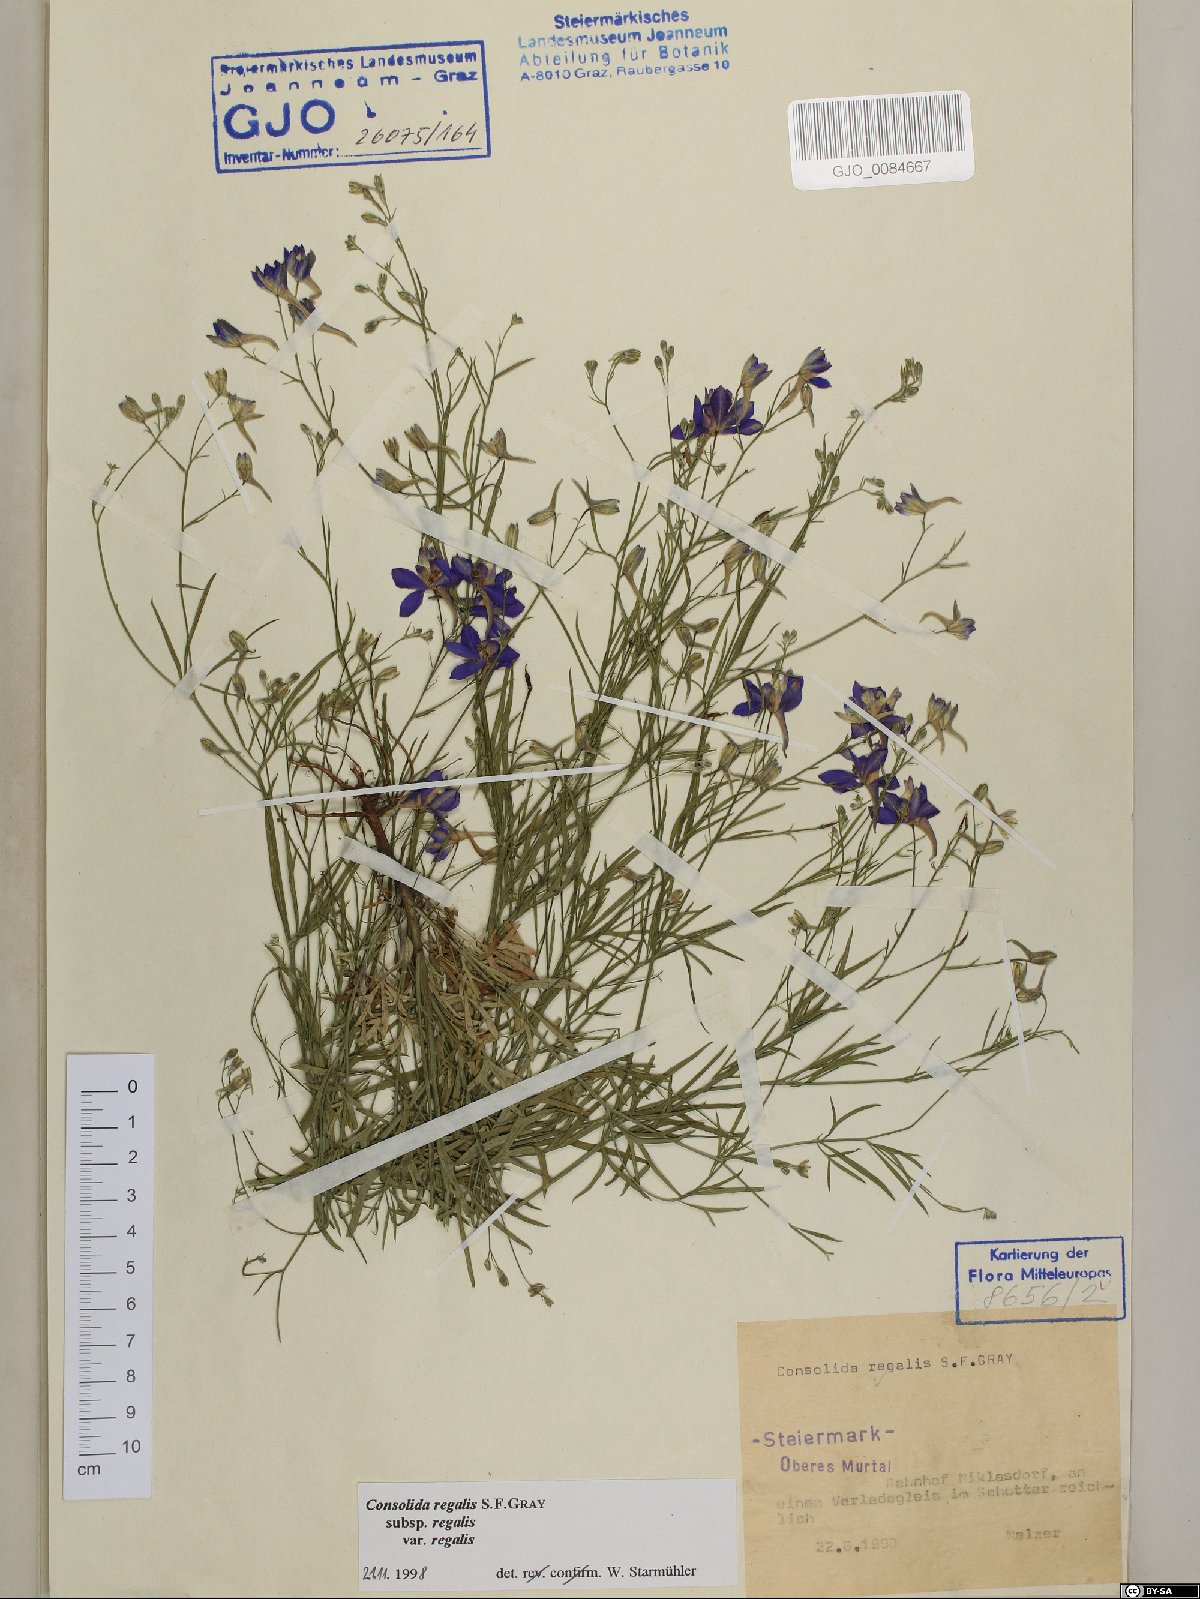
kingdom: Plantae
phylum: Tracheophyta
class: Magnoliopsida
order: Ranunculales
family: Ranunculaceae
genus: Delphinium
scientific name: Delphinium consolida
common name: Branching larkspur
